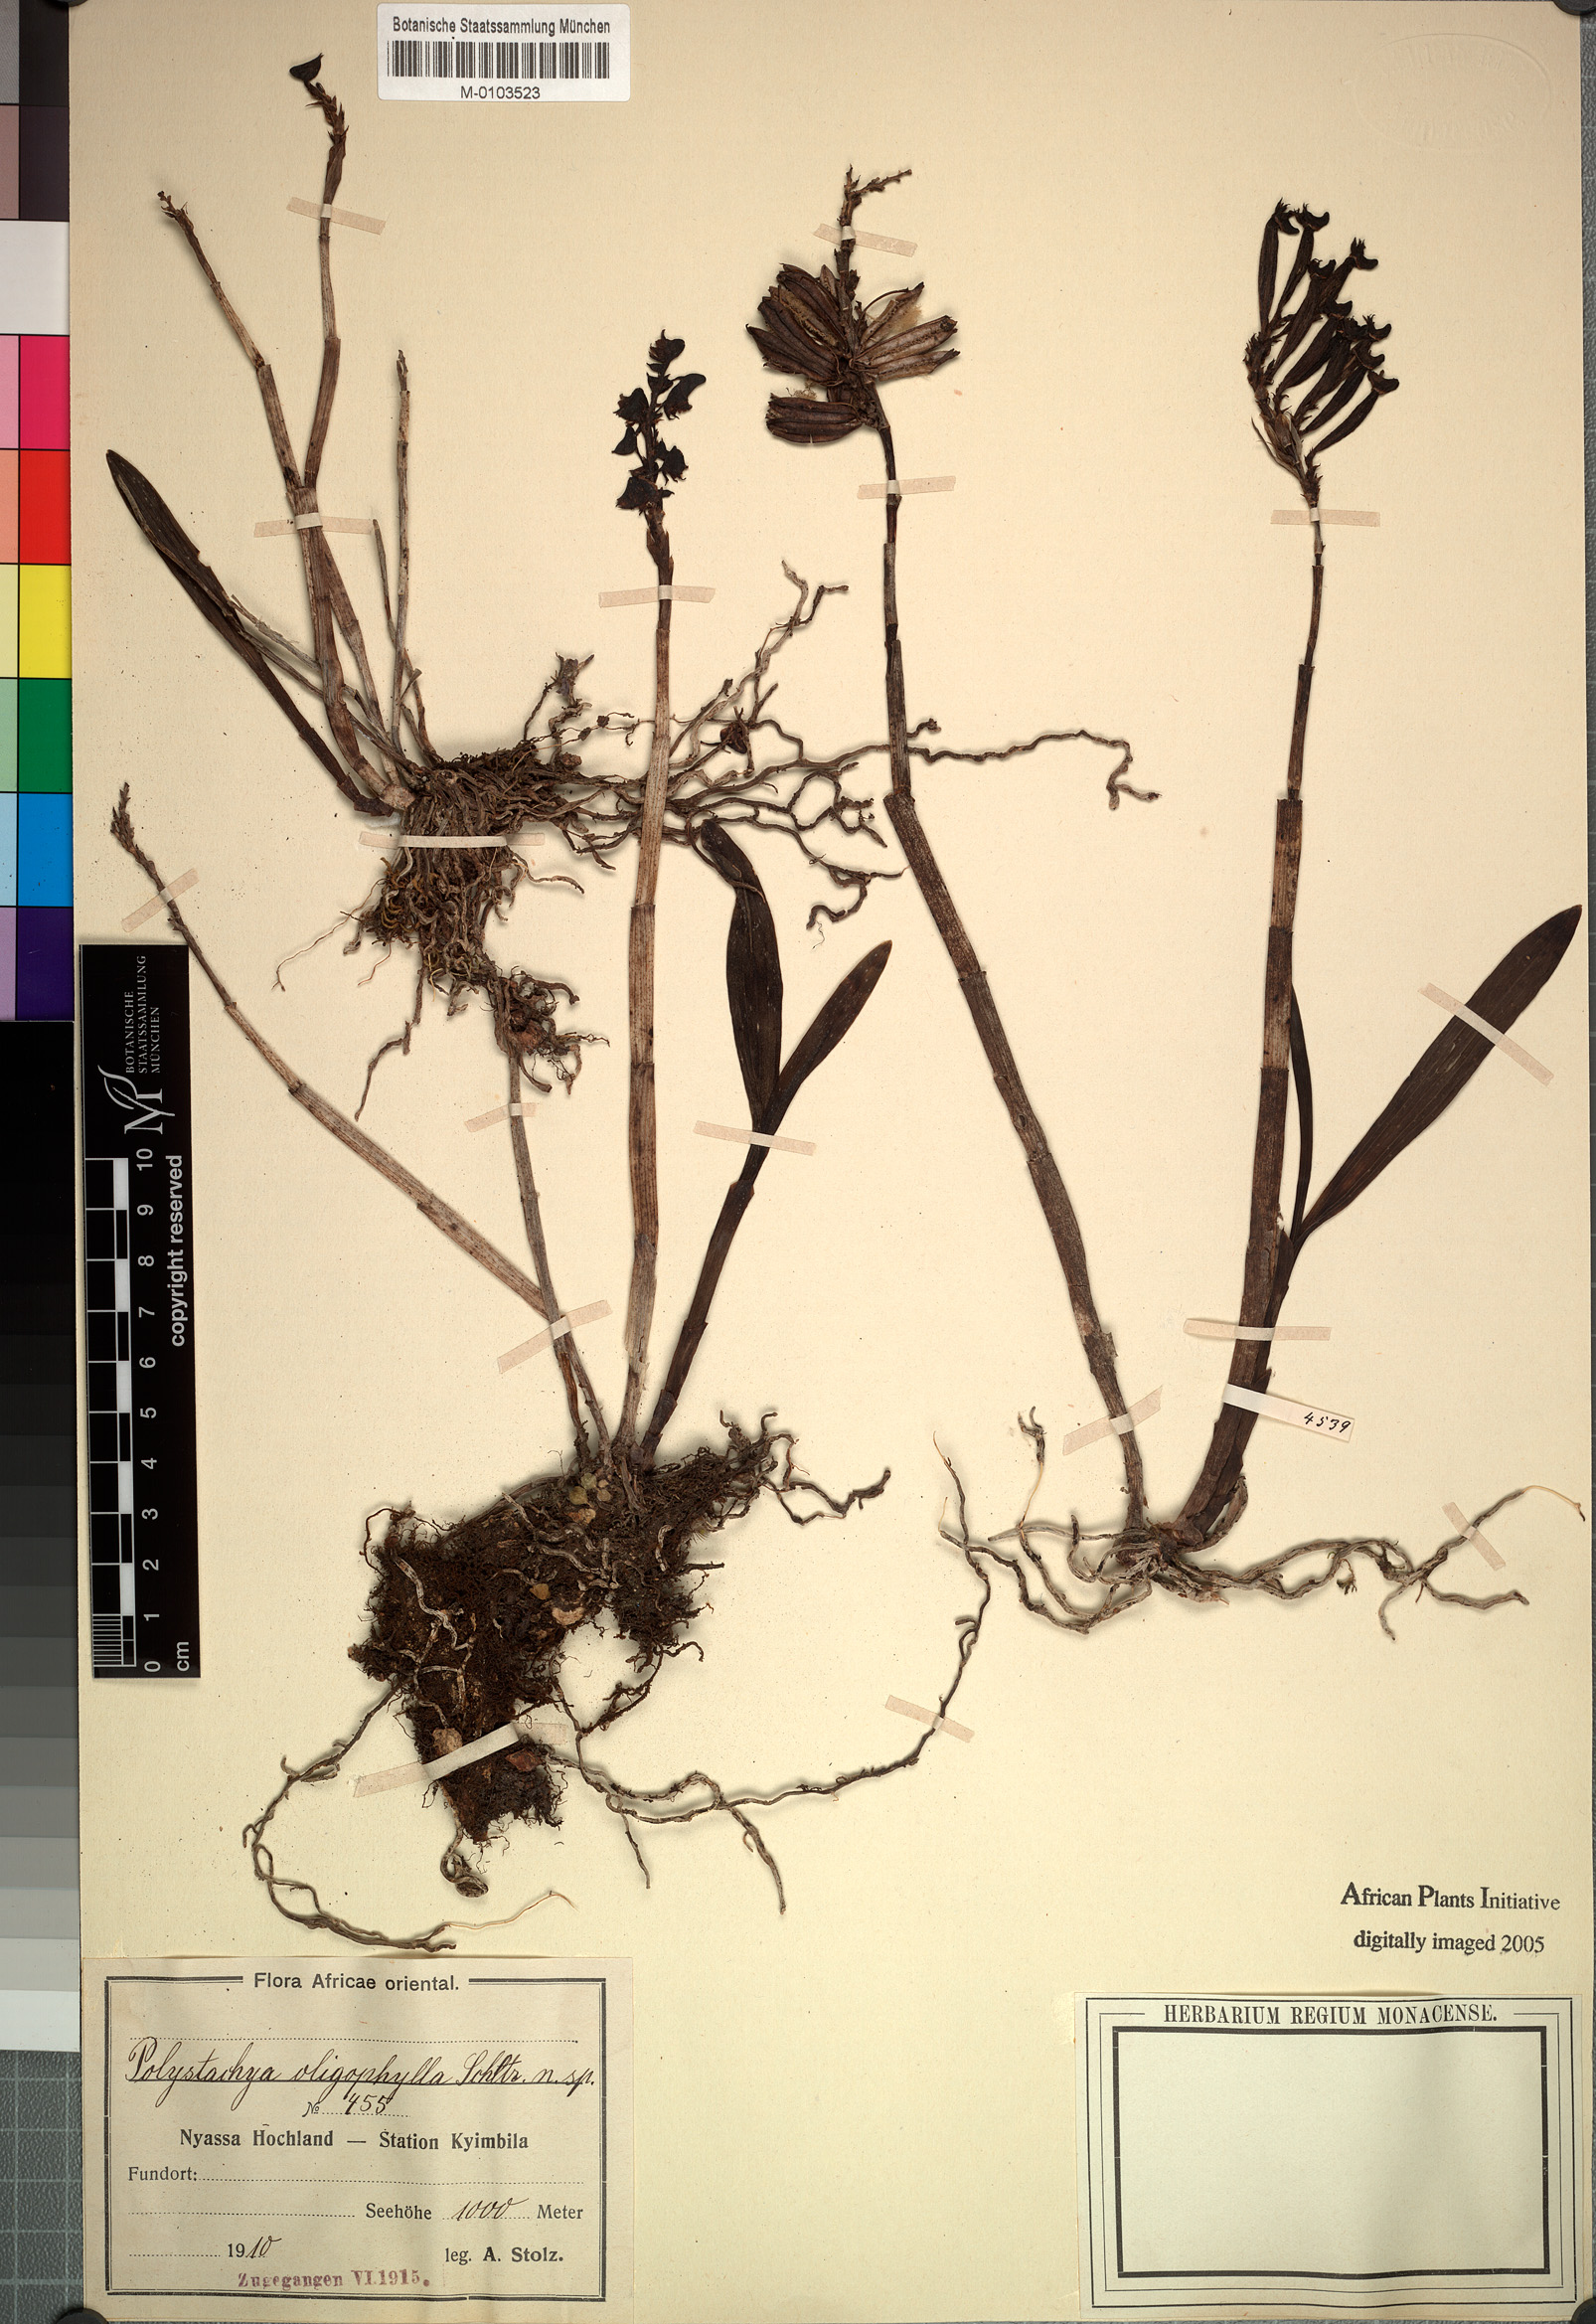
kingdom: Plantae
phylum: Tracheophyta
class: Liliopsida
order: Asparagales
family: Orchidaceae
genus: Polystachya
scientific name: Polystachya albescens
